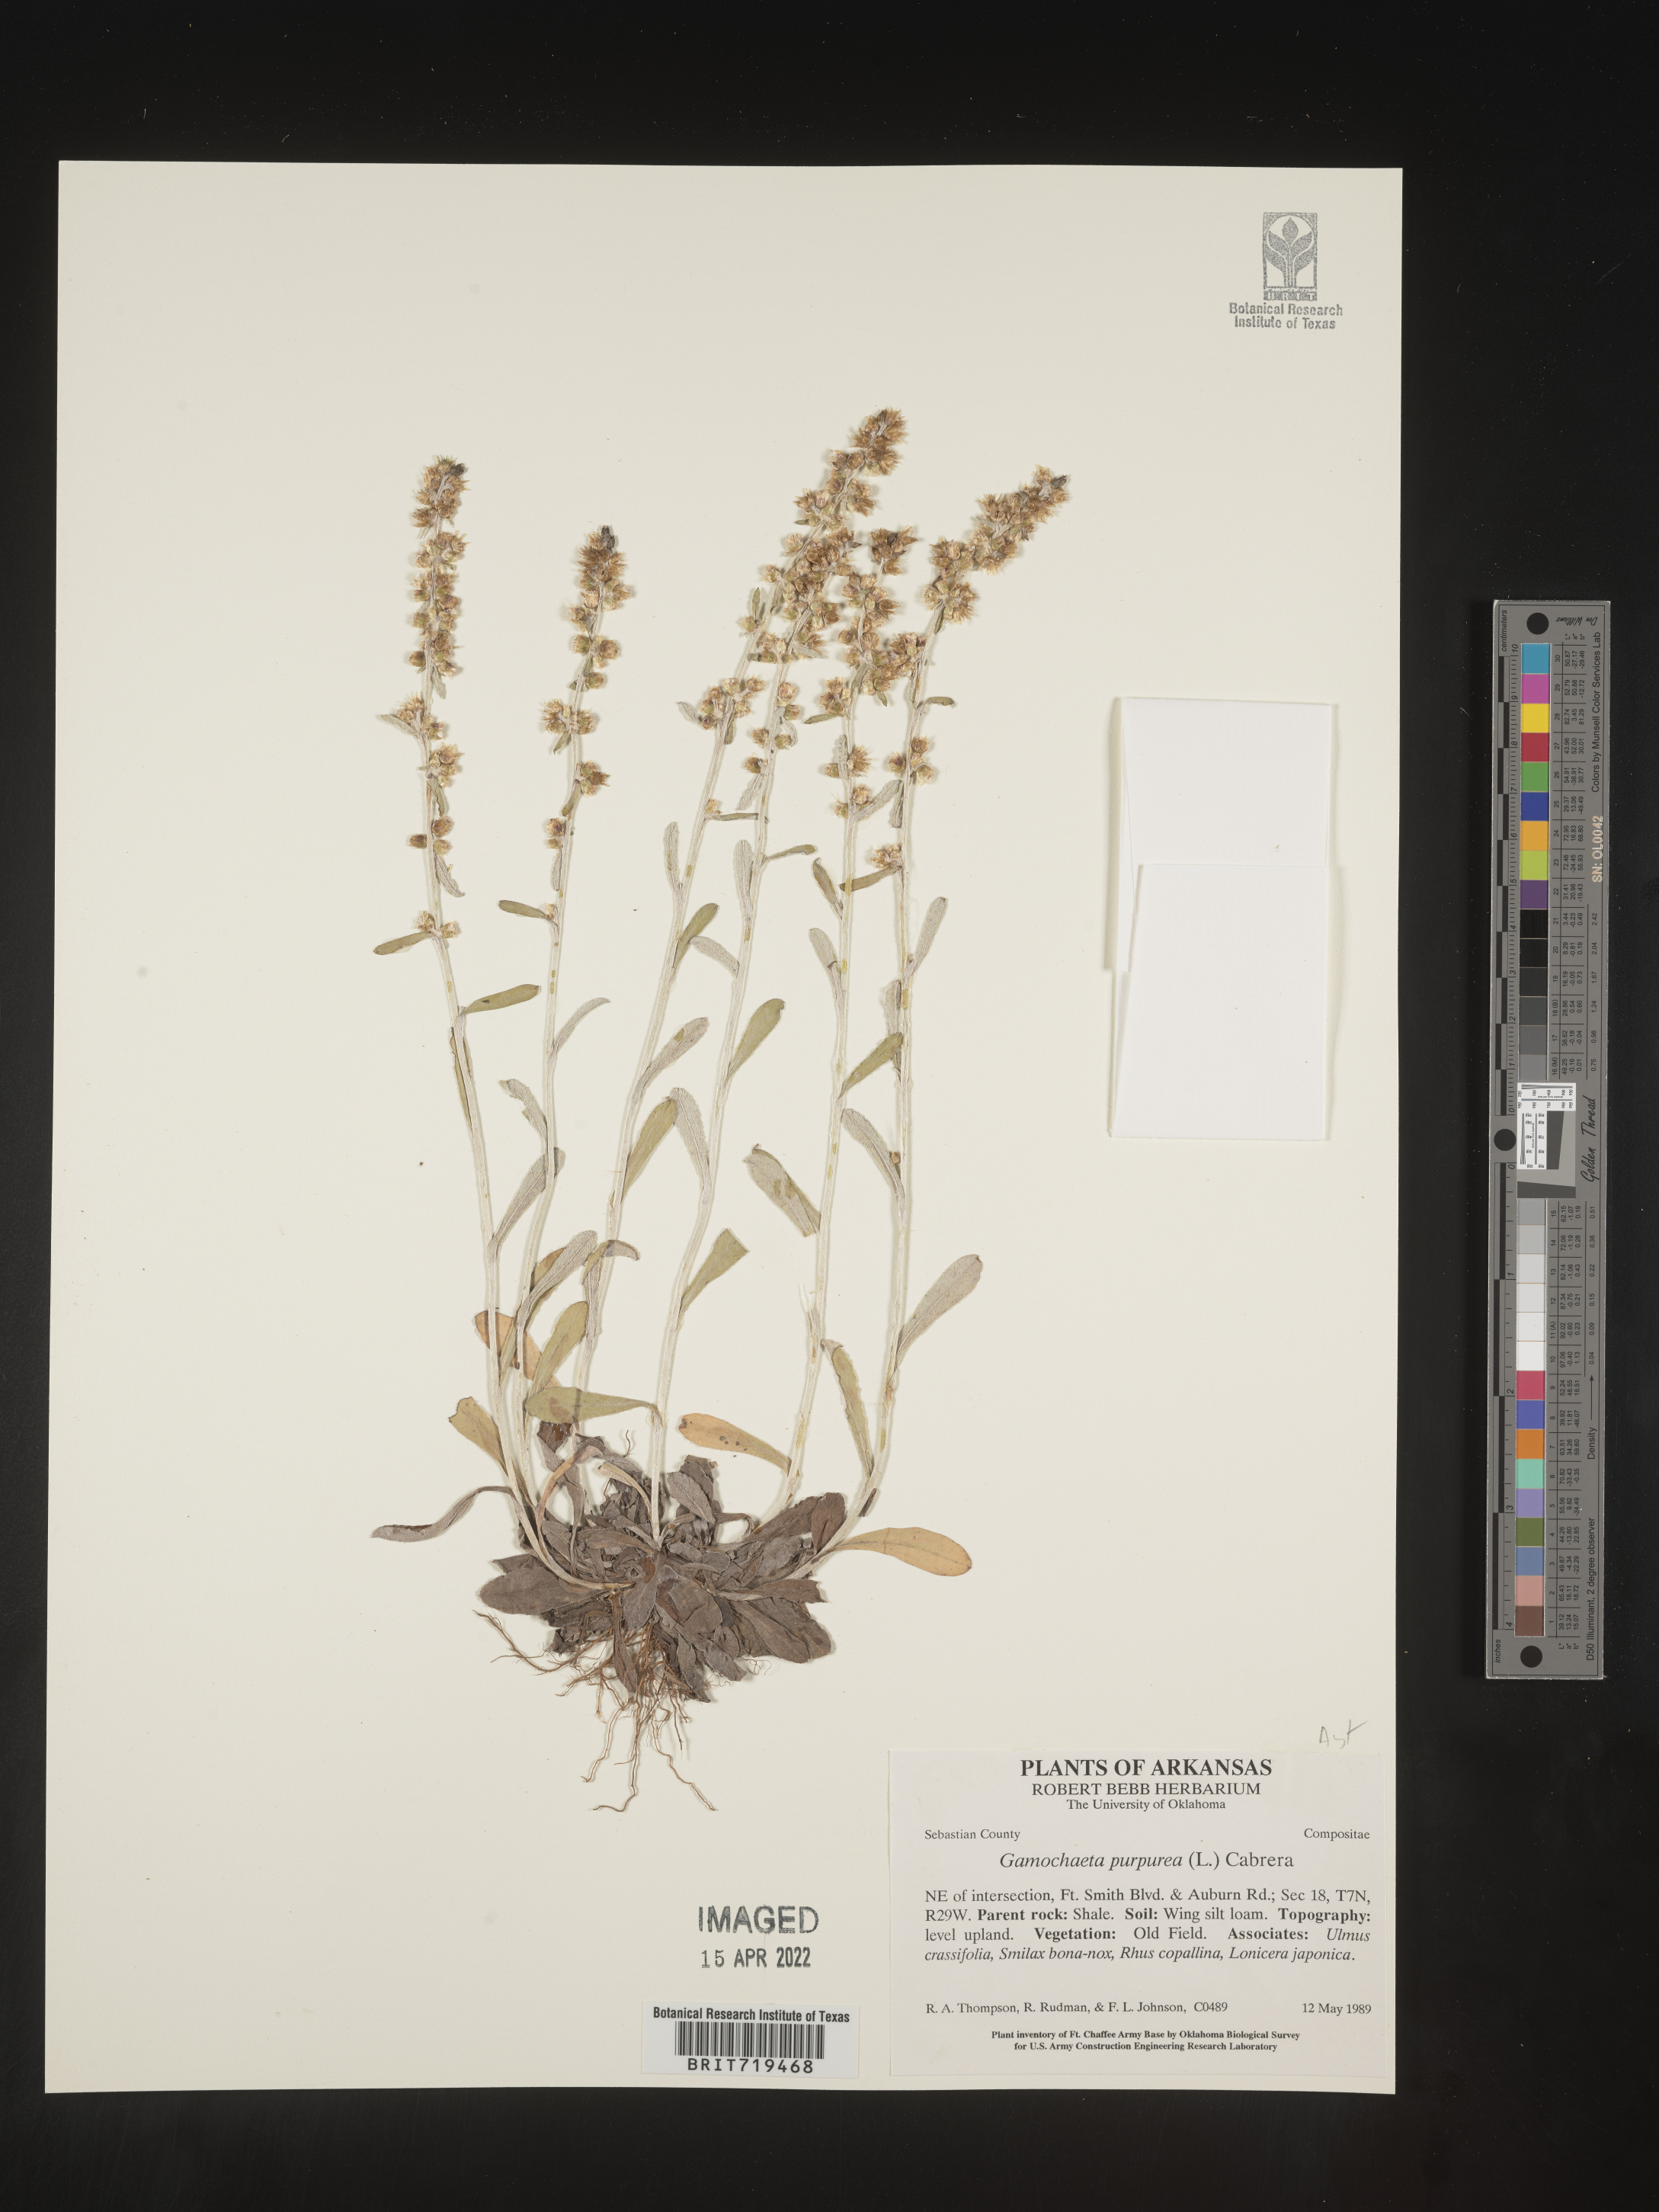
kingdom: Plantae
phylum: Tracheophyta
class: Magnoliopsida
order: Asterales
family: Asteraceae
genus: Gamochaeta
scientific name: Gamochaeta argyrinea
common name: Silvery cudweed
